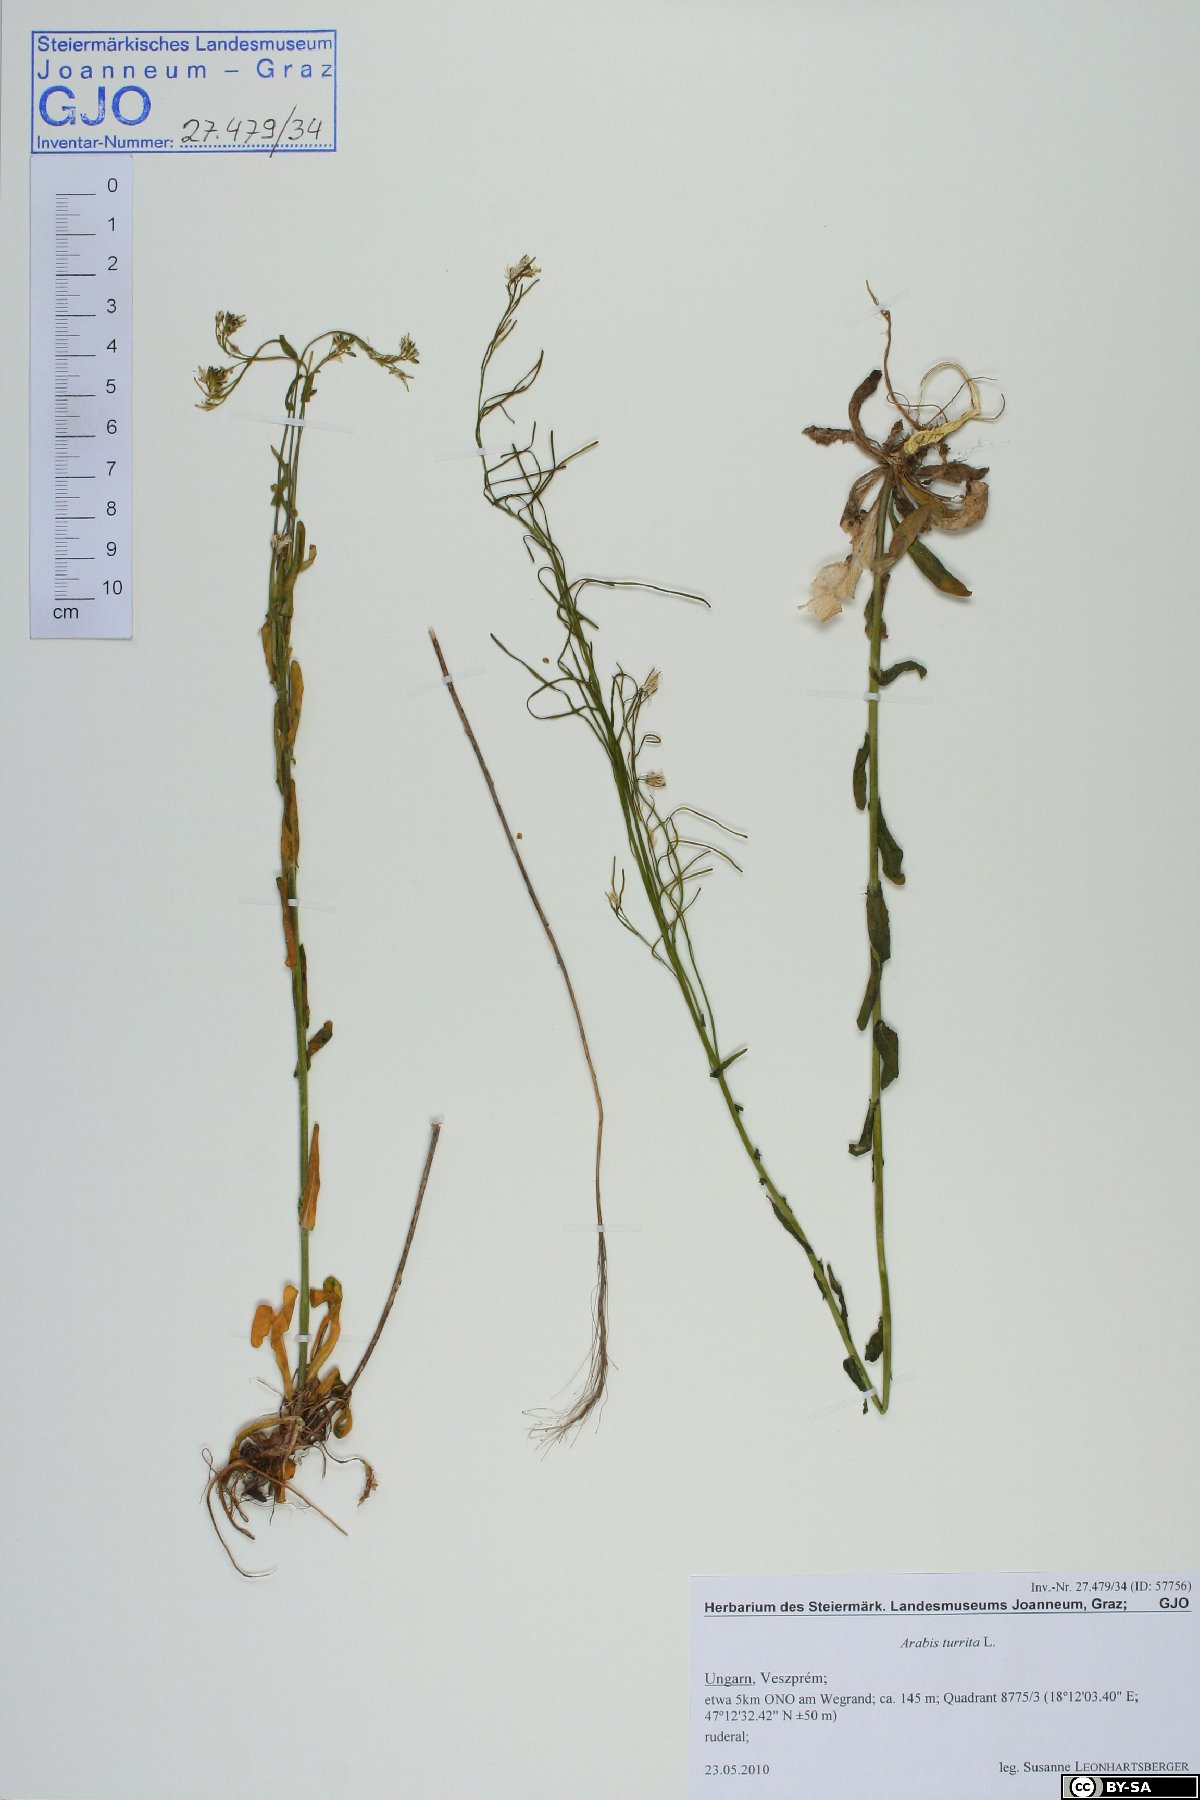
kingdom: Plantae
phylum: Tracheophyta
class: Magnoliopsida
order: Brassicales
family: Brassicaceae
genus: Pseudoturritis
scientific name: Pseudoturritis turrita
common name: Tower cress
